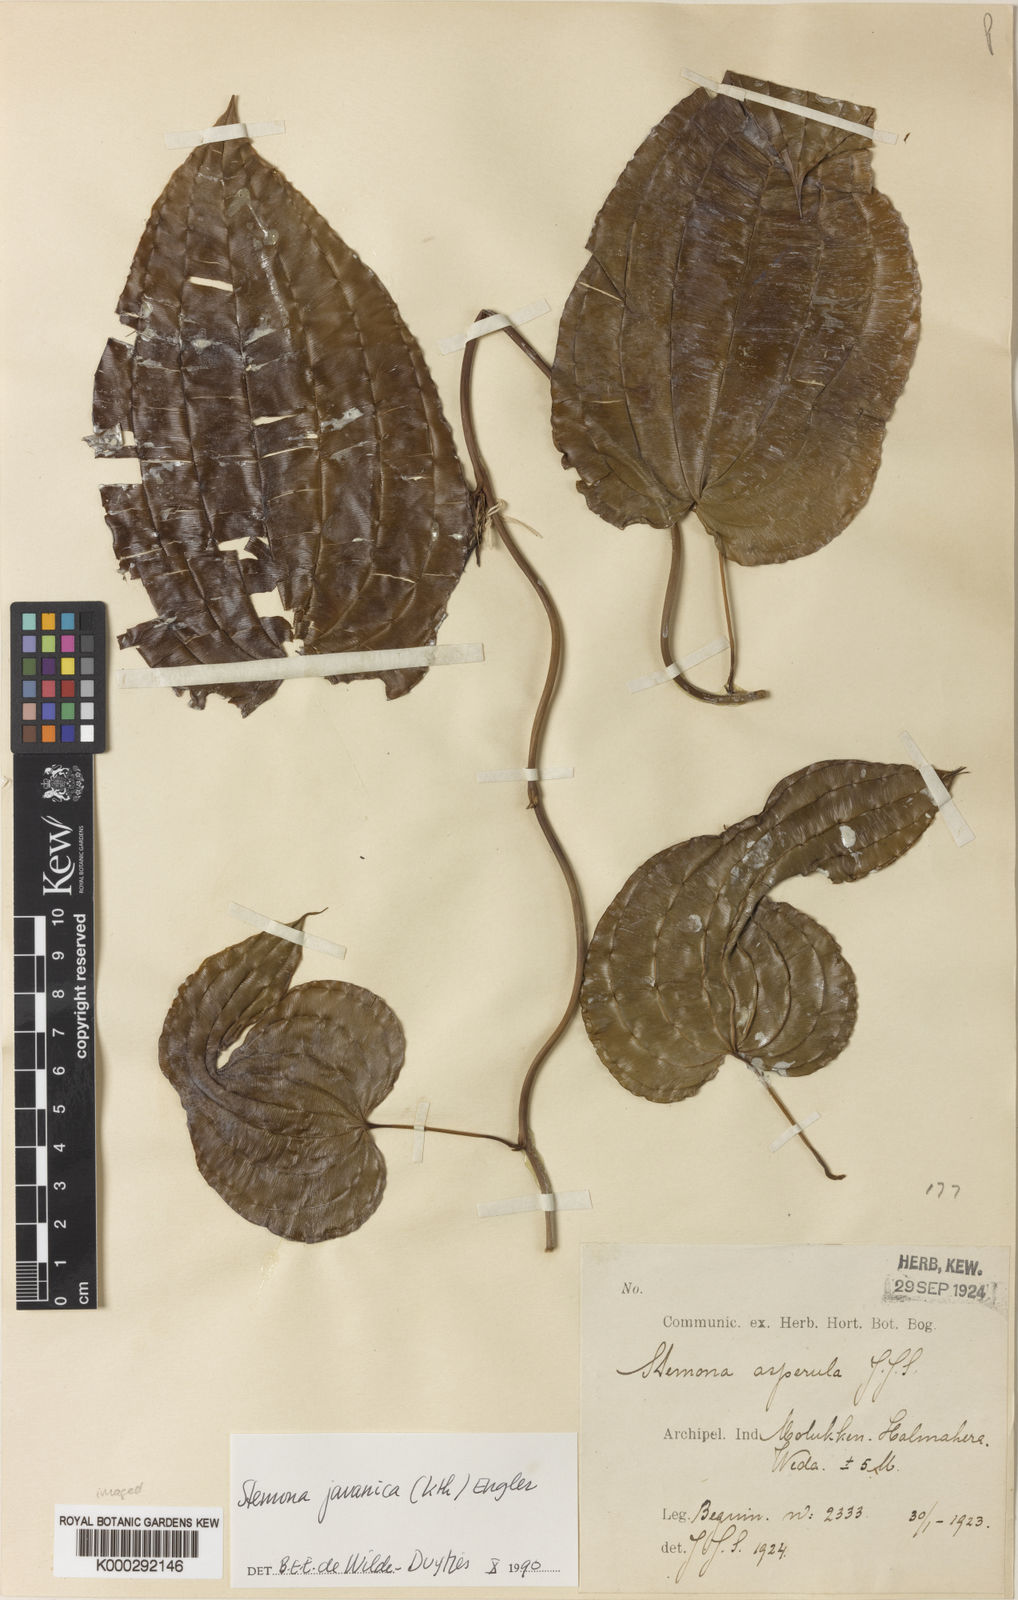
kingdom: Plantae
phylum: Tracheophyta
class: Liliopsida
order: Pandanales
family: Stemonaceae
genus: Stemona
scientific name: Stemona javanica
